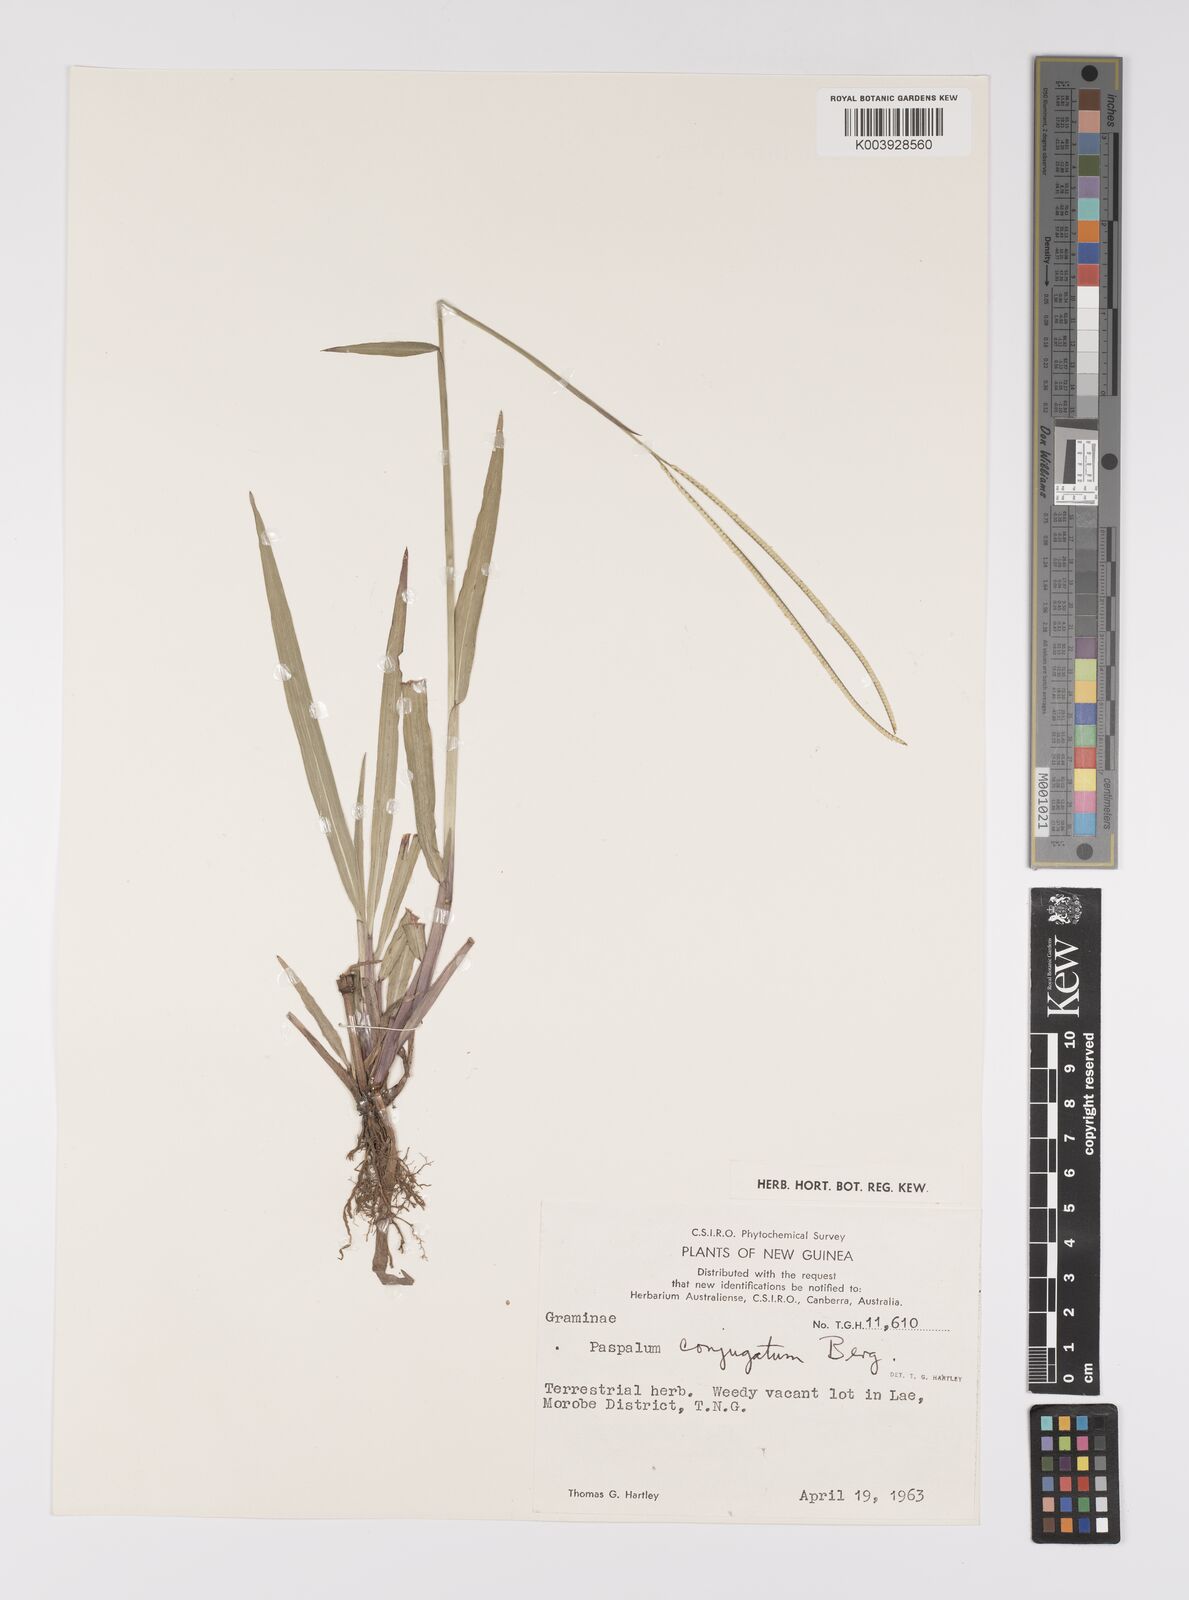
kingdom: Plantae
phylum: Tracheophyta
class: Liliopsida
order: Poales
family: Poaceae
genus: Paspalum
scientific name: Paspalum conjugatum
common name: Hilograss
